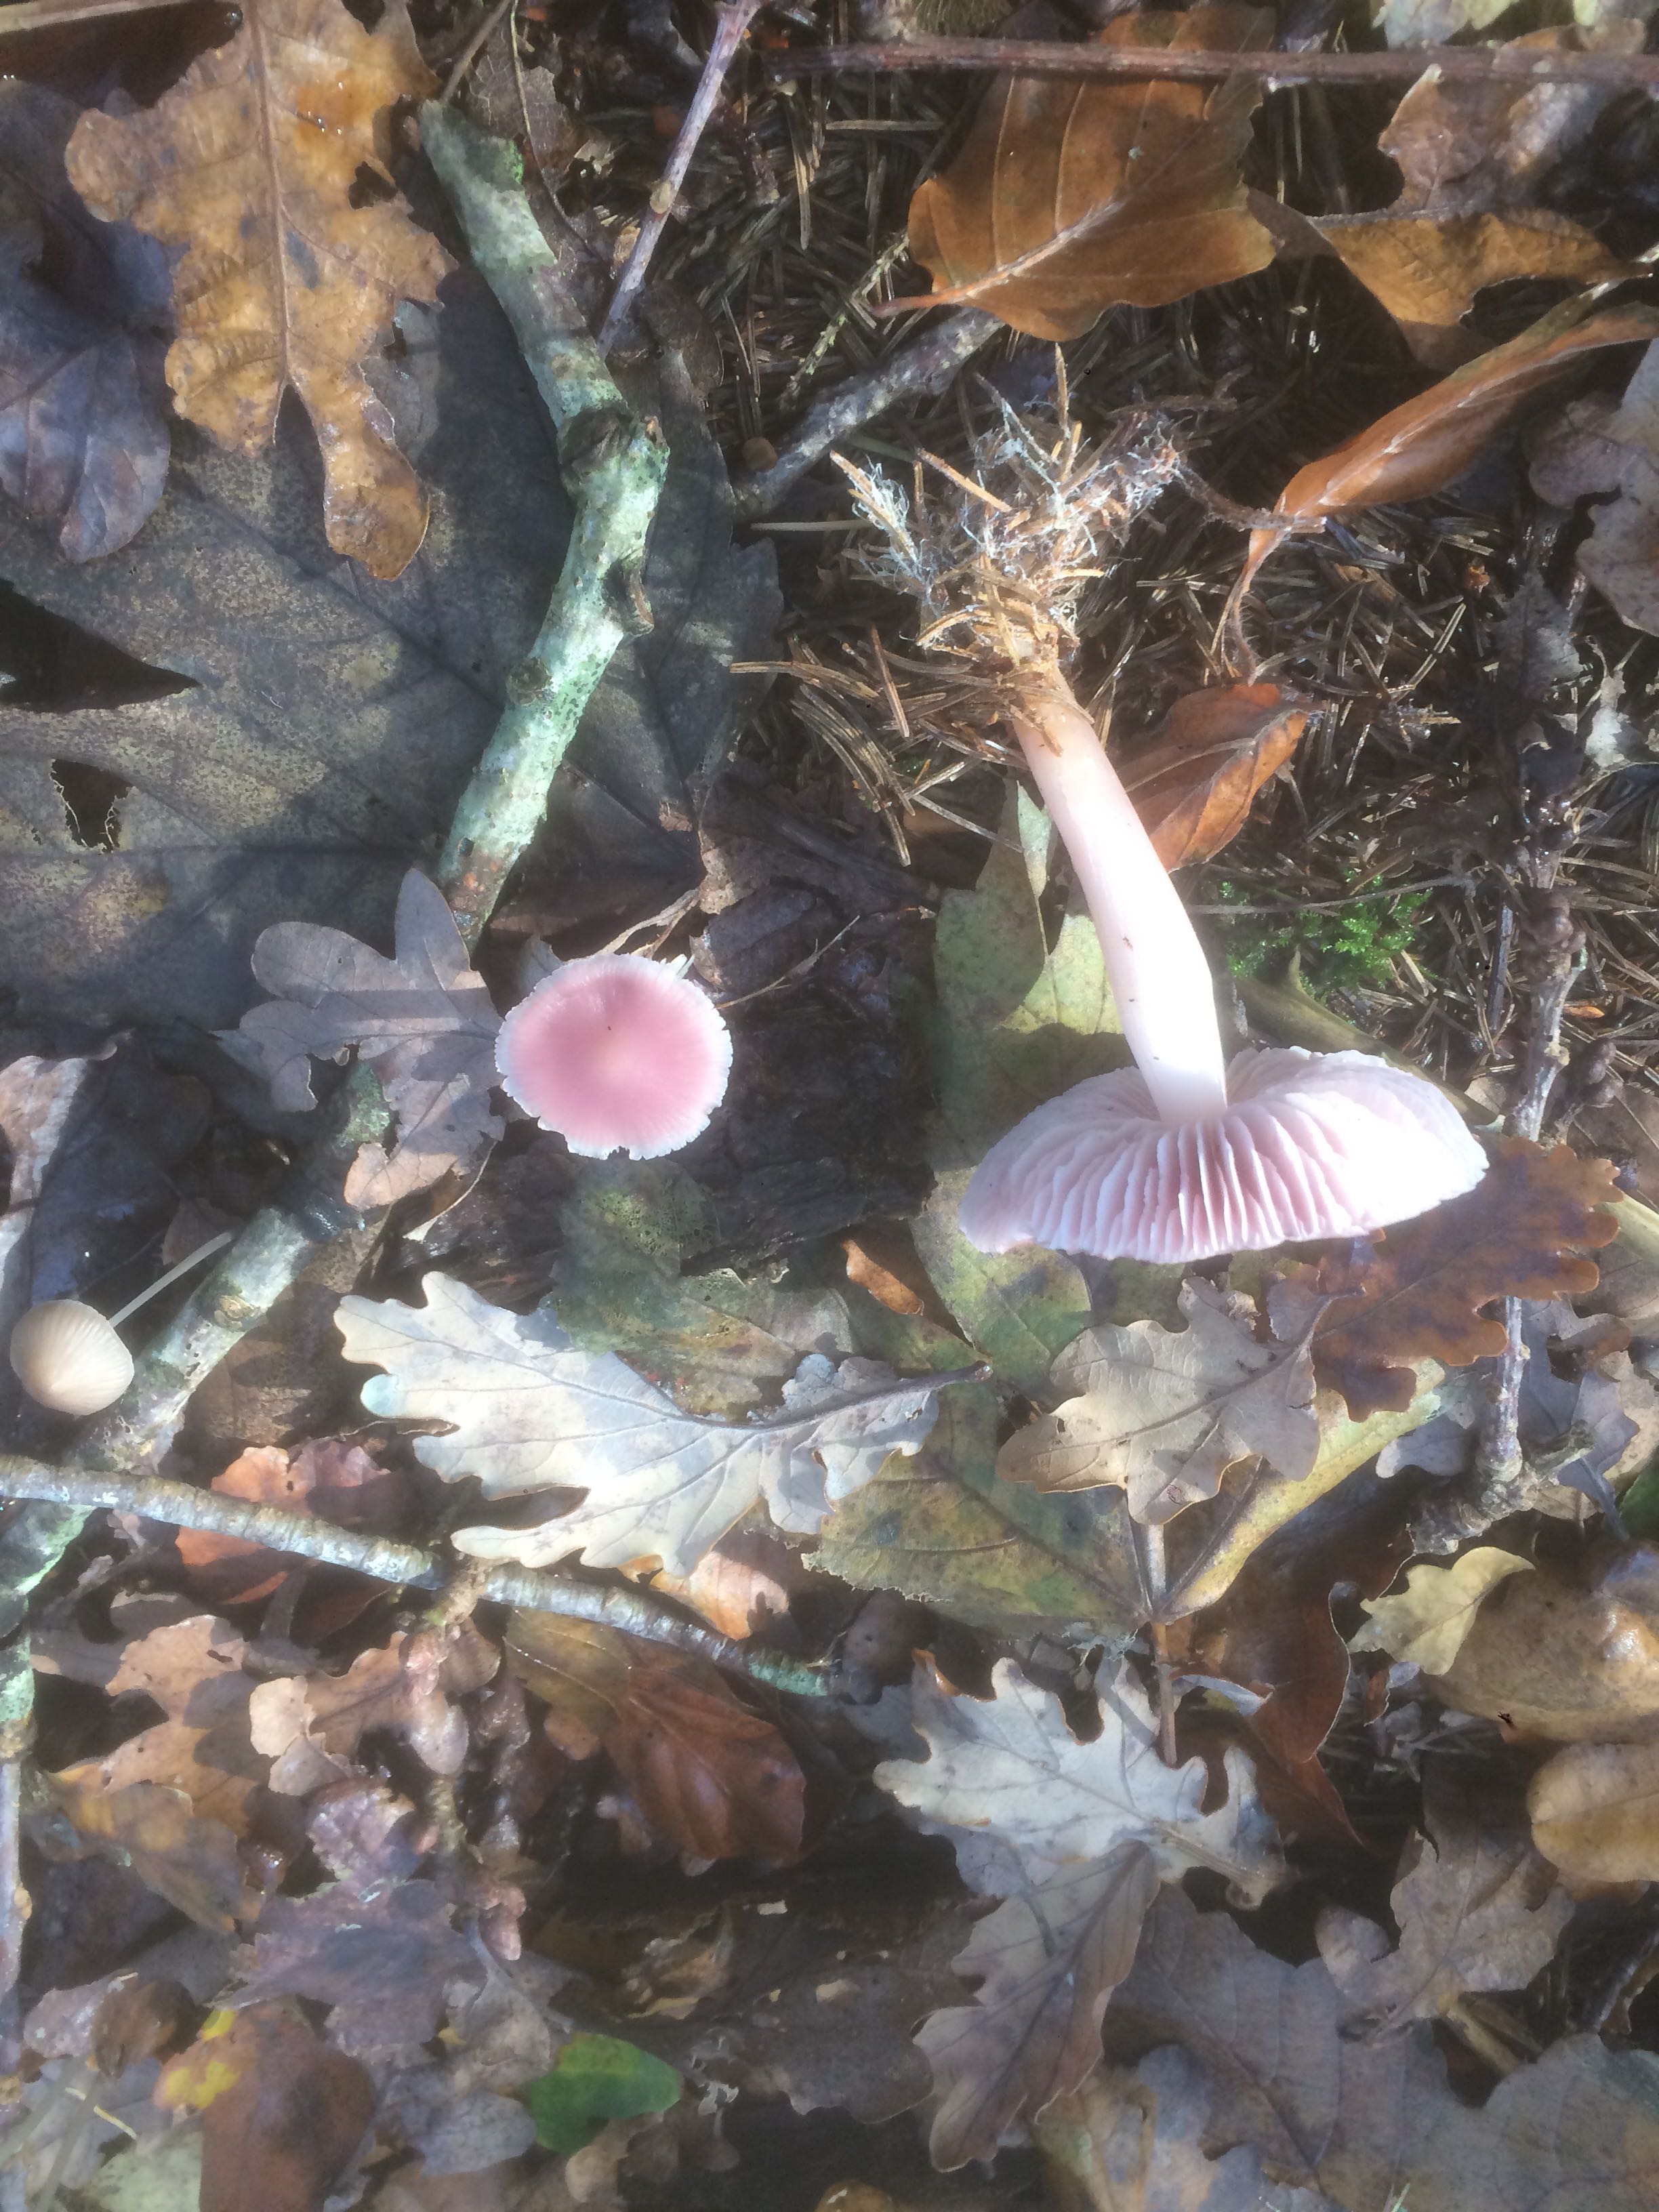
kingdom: Fungi
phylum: Basidiomycota
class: Agaricomycetes
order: Agaricales
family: Mycenaceae
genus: Mycena
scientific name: Mycena rosea
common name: rosa huesvamp
